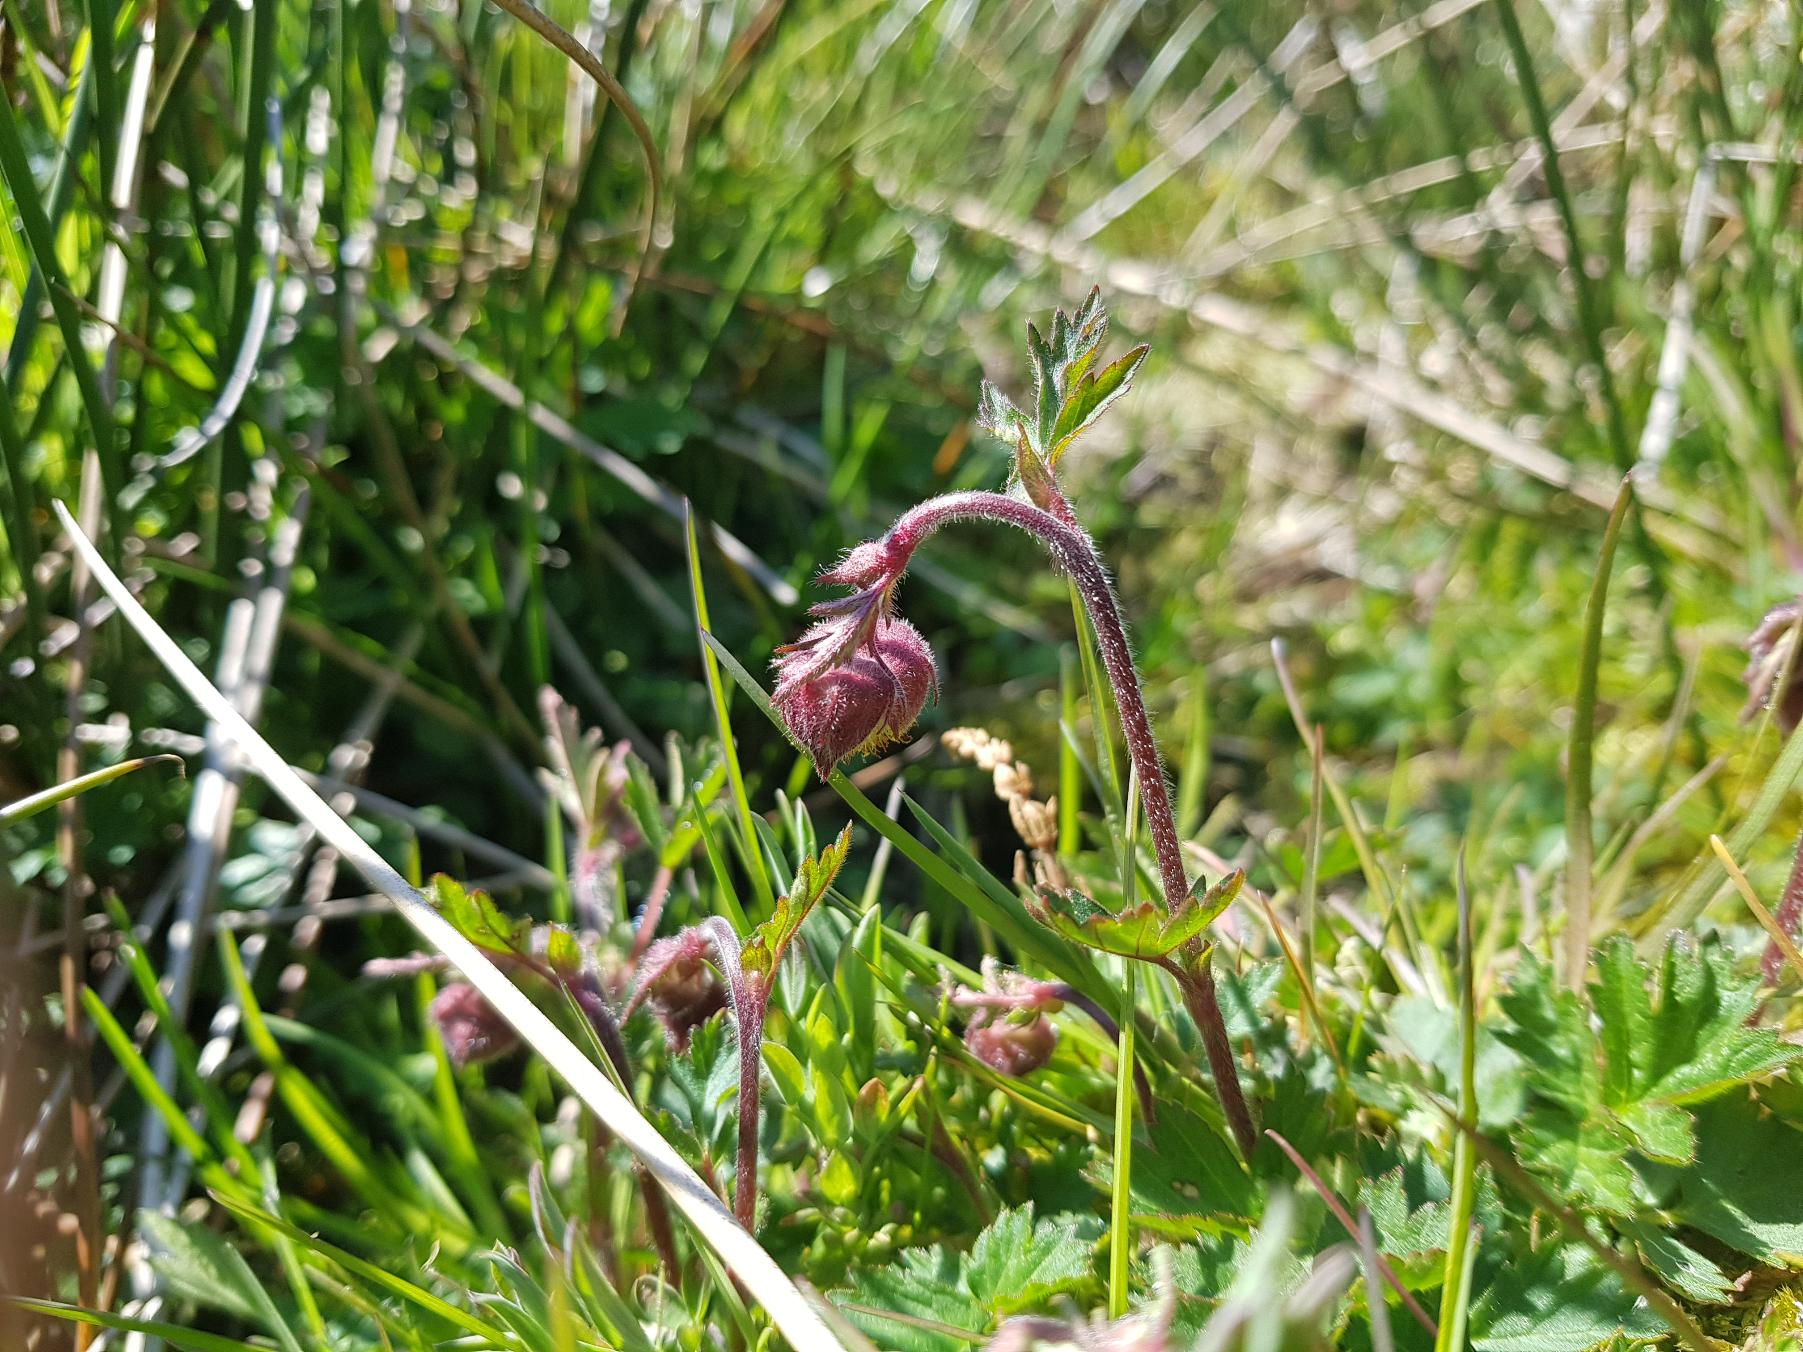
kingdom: Plantae
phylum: Tracheophyta
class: Magnoliopsida
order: Rosales
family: Rosaceae
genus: Geum
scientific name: Geum rivale
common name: Eng-nellikerod
